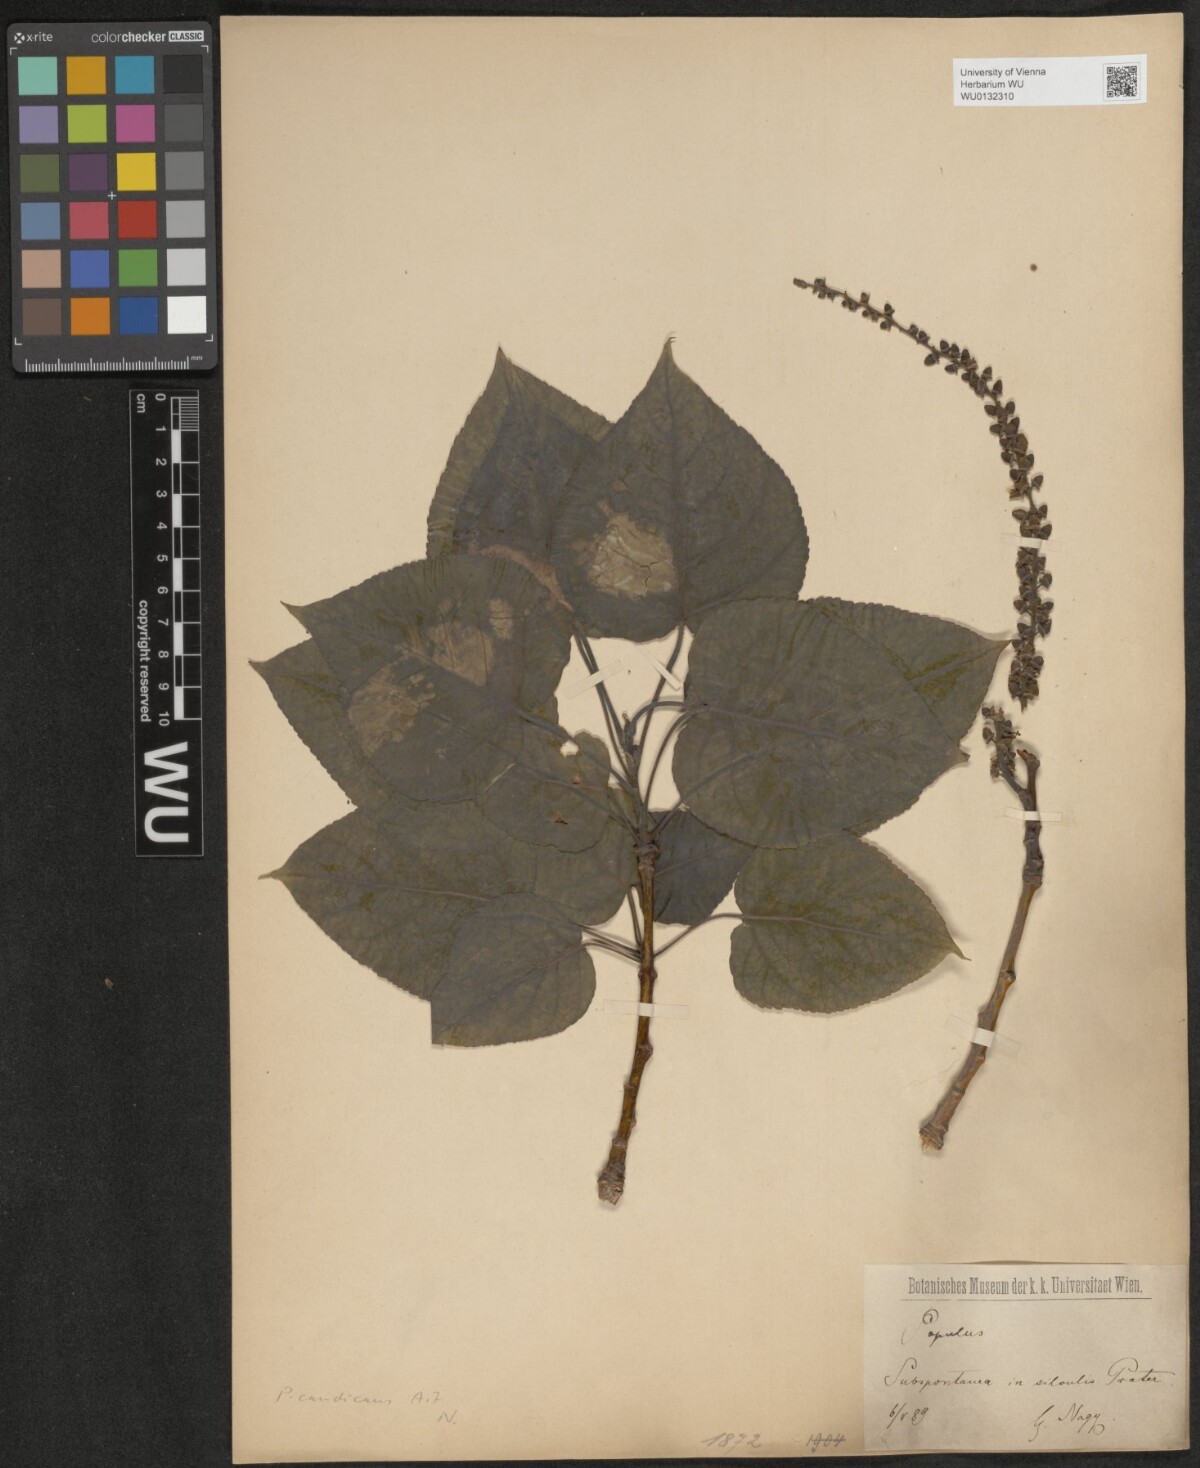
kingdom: Plantae
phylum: Tracheophyta
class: Magnoliopsida
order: Malpighiales
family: Salicaceae
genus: Populus
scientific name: Populus balsamifera
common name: Balsam poplar
